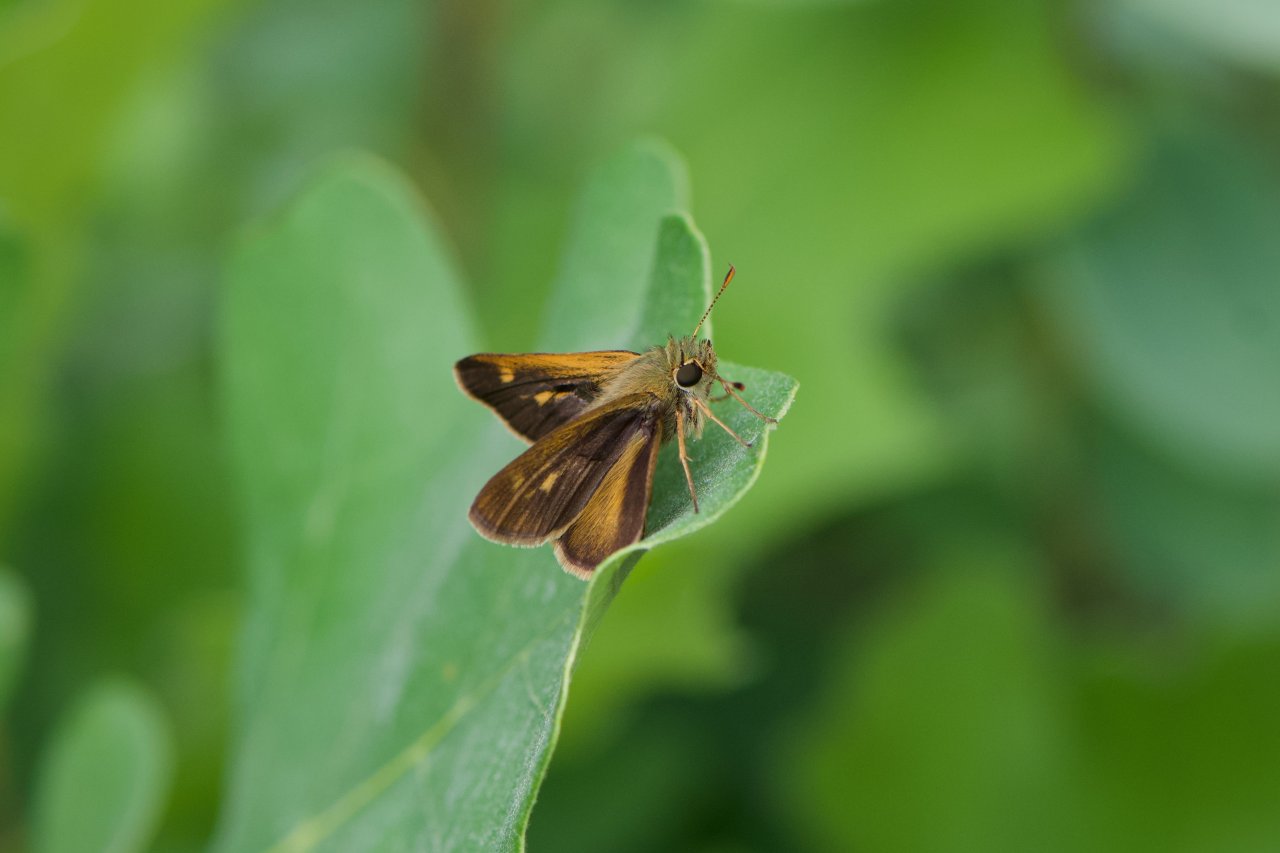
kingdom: Animalia
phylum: Arthropoda
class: Insecta
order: Lepidoptera
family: Hesperiidae
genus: Polites
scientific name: Polites egeremet
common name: Northern Broken-Dash
